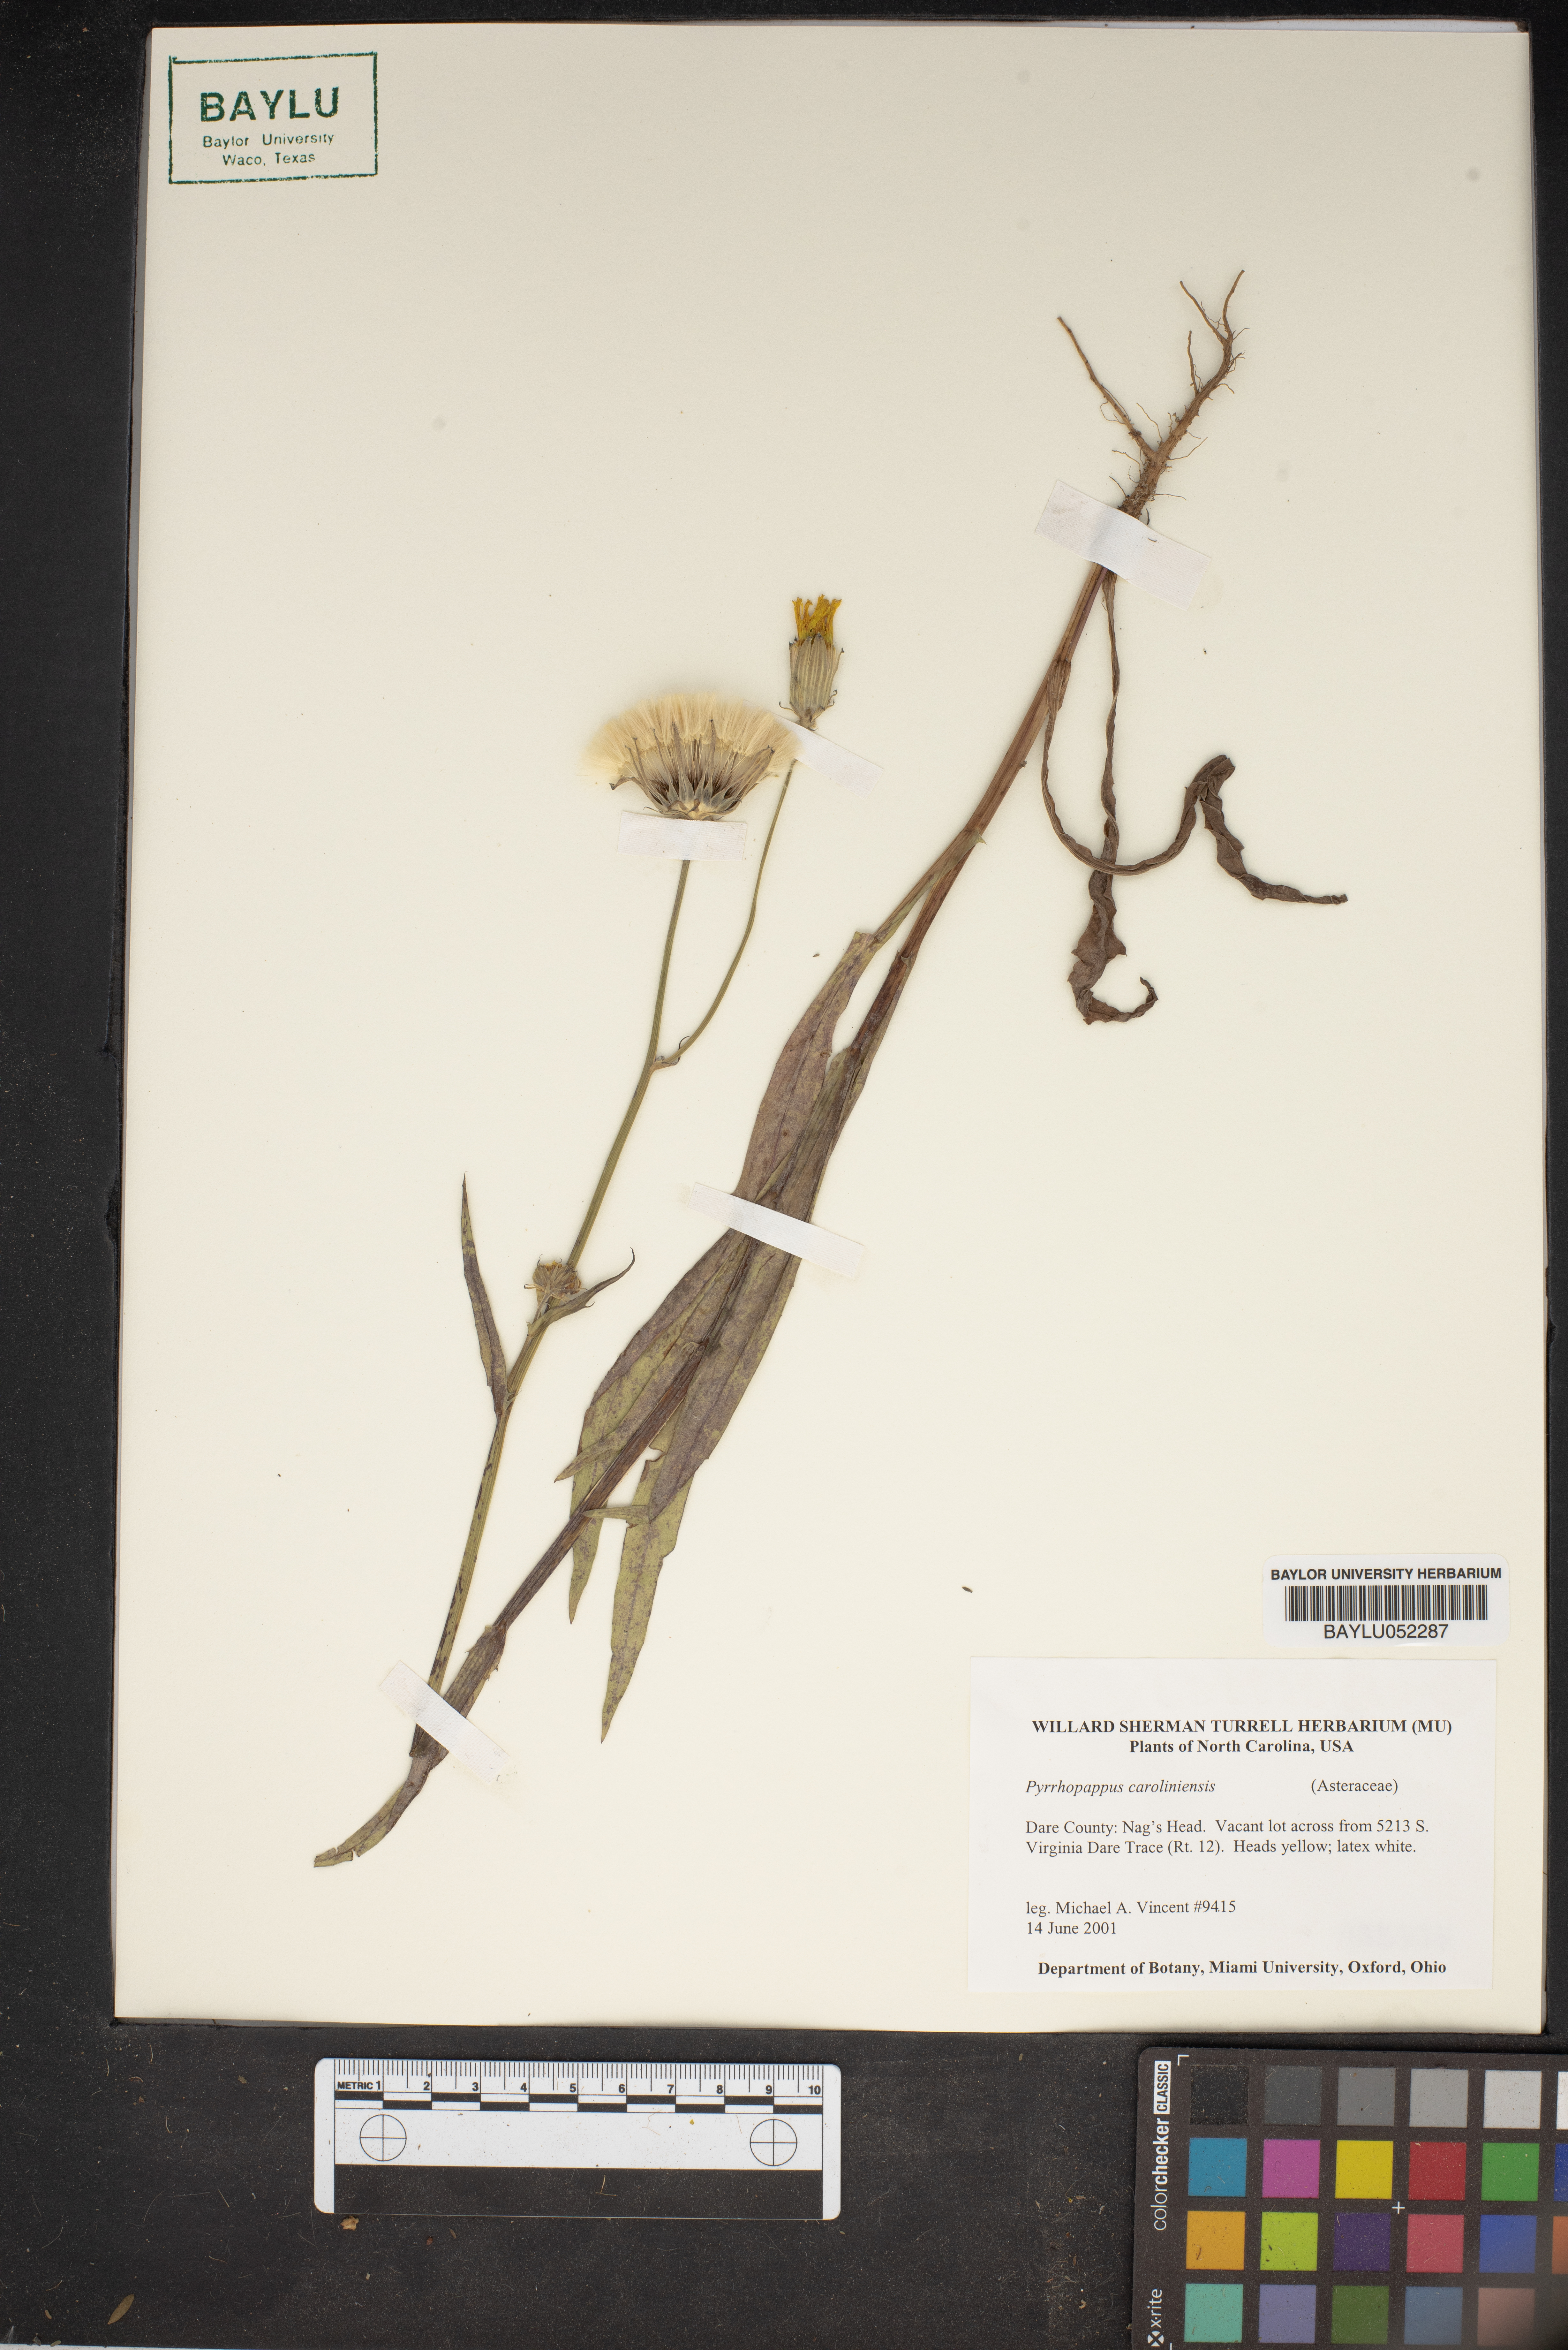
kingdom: Plantae
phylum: Tracheophyta
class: Magnoliopsida
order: Asterales
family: Asteraceae
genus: Pyrrhopappus
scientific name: Pyrrhopappus carolinianus
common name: Carolina desert-chicory
